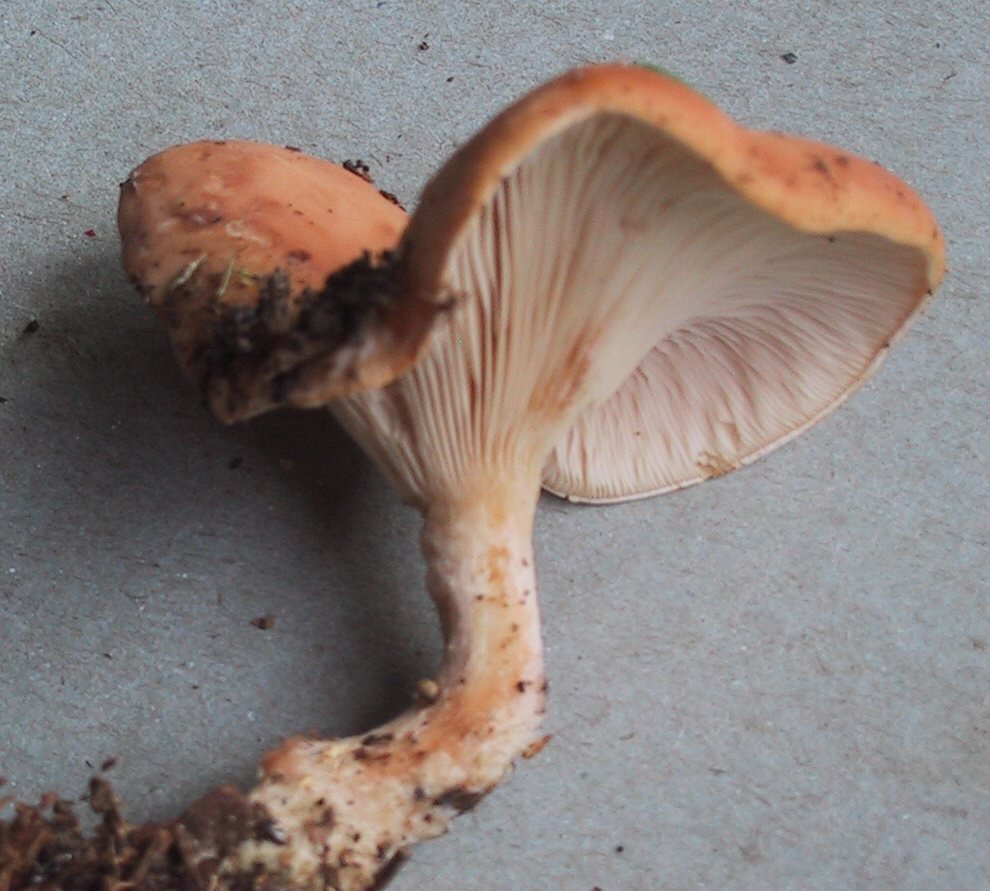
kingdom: Fungi
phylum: Basidiomycota
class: Agaricomycetes
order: Agaricales
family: Tricholomataceae
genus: Paralepista
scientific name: Paralepista gilva
